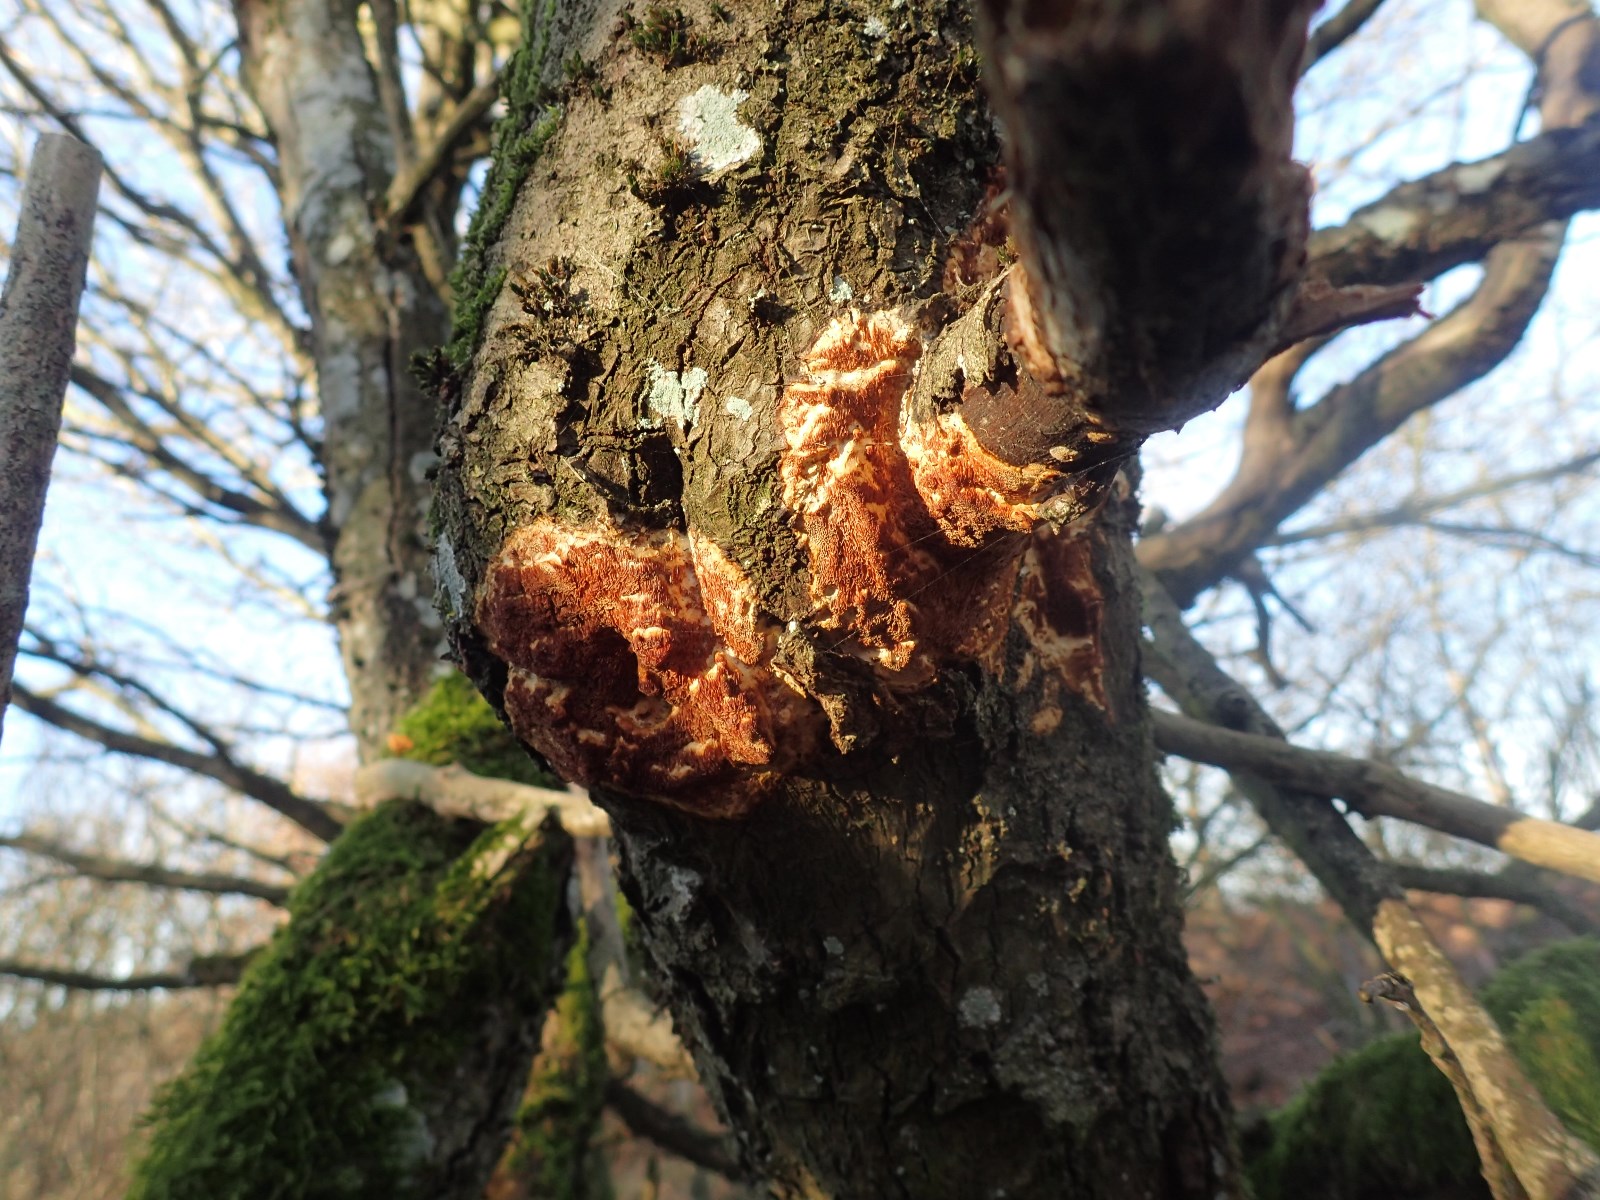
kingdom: Fungi
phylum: Basidiomycota
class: Agaricomycetes
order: Polyporales
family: Irpicaceae
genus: Resiniporus
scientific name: Resiniporus resinascens
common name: trist pastelporesvamp
